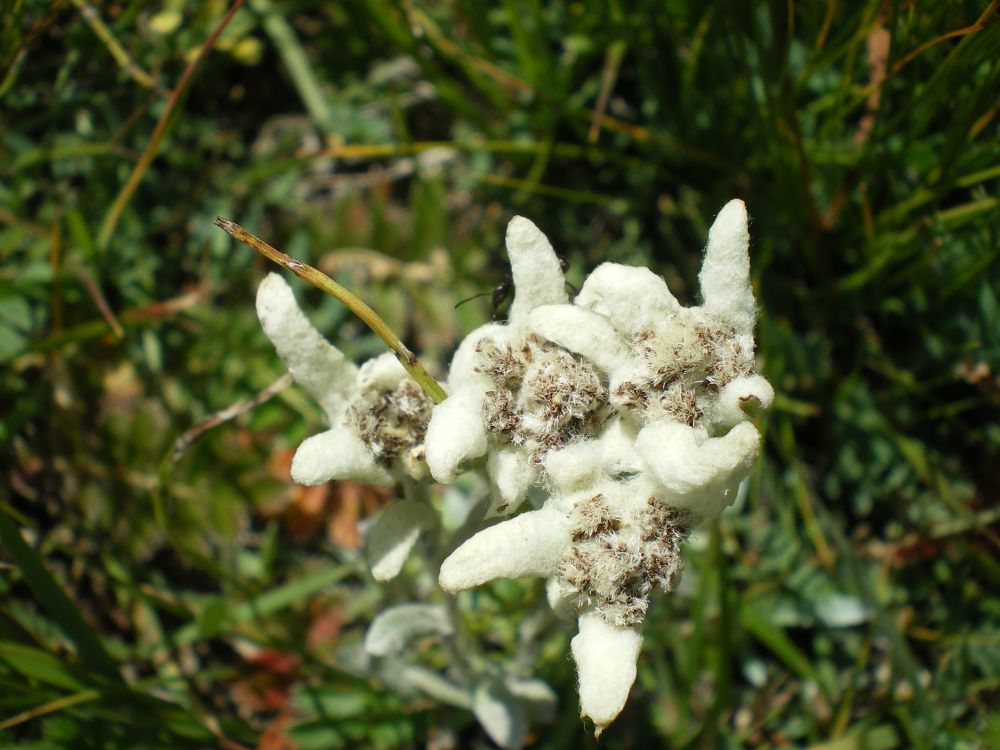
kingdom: Plantae
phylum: Tracheophyta
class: Magnoliopsida
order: Asterales
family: Asteraceae
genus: Leontopodium
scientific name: Leontopodium campestre
